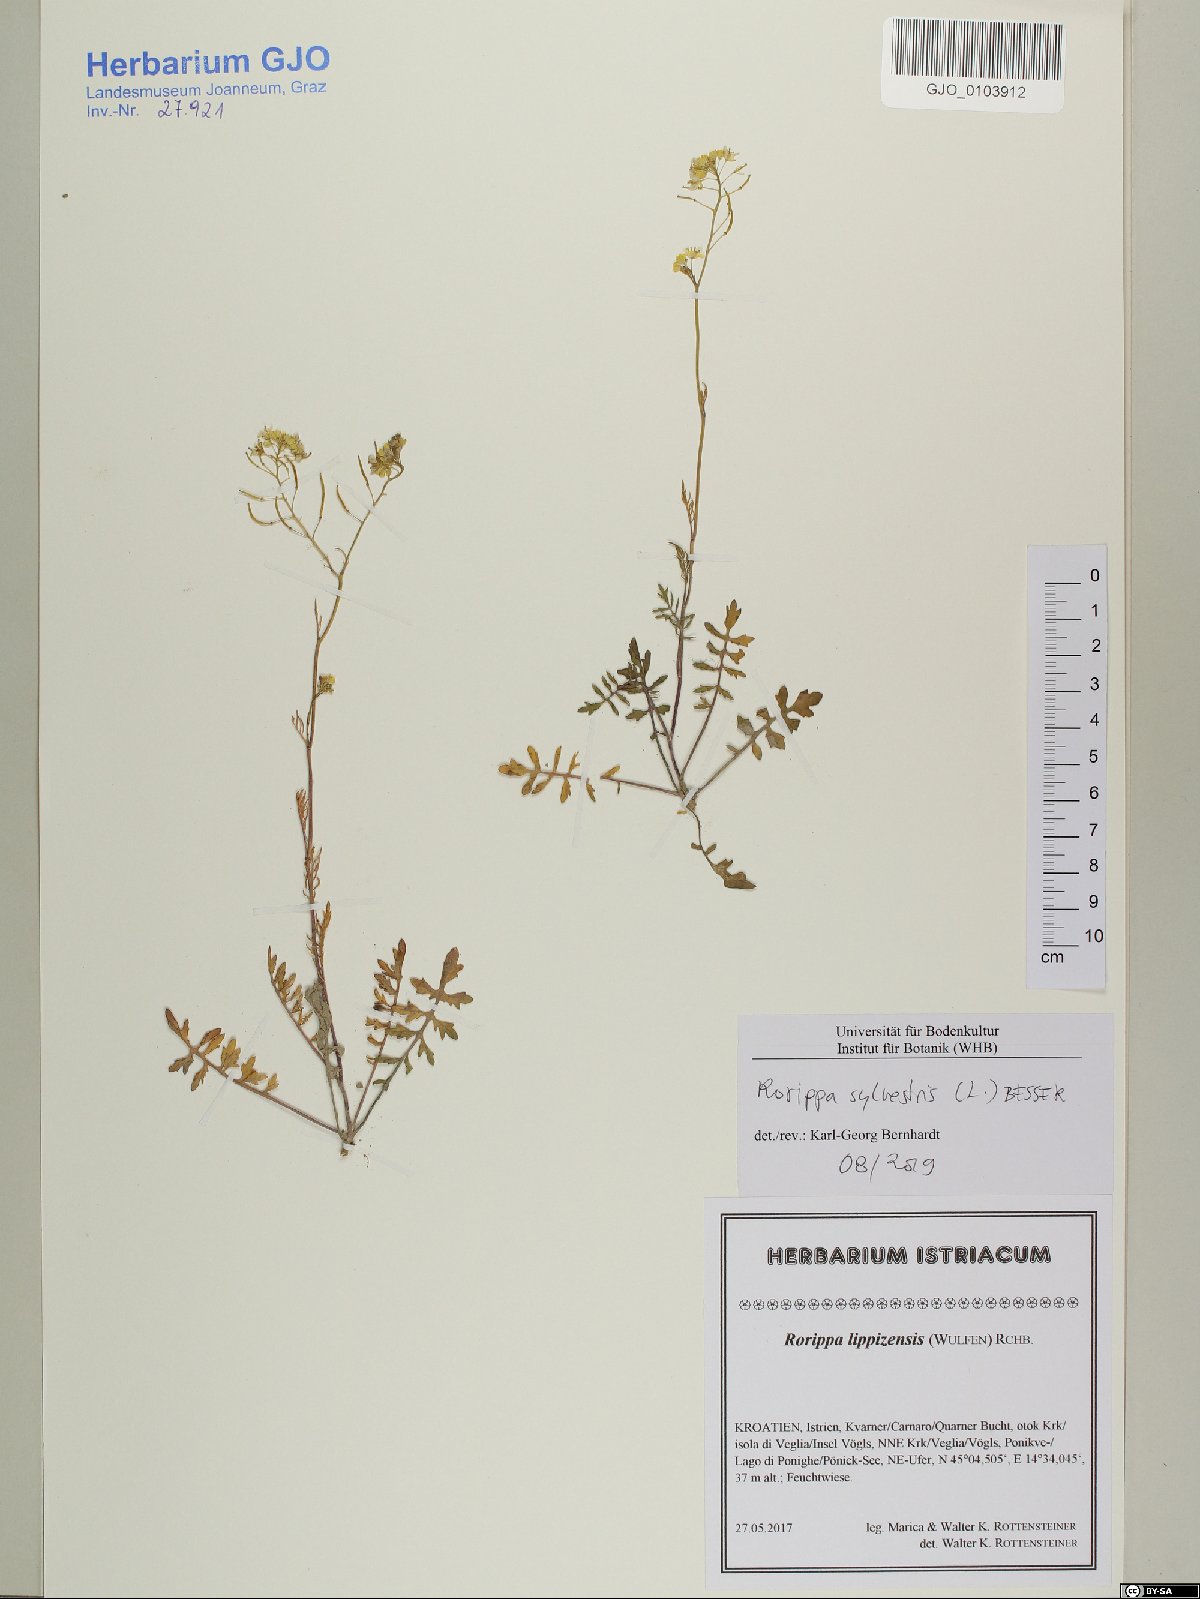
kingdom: Plantae
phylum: Tracheophyta
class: Magnoliopsida
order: Brassicales
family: Brassicaceae
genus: Rorippa
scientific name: Rorippa sylvestris
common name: Creeping yellowcress
